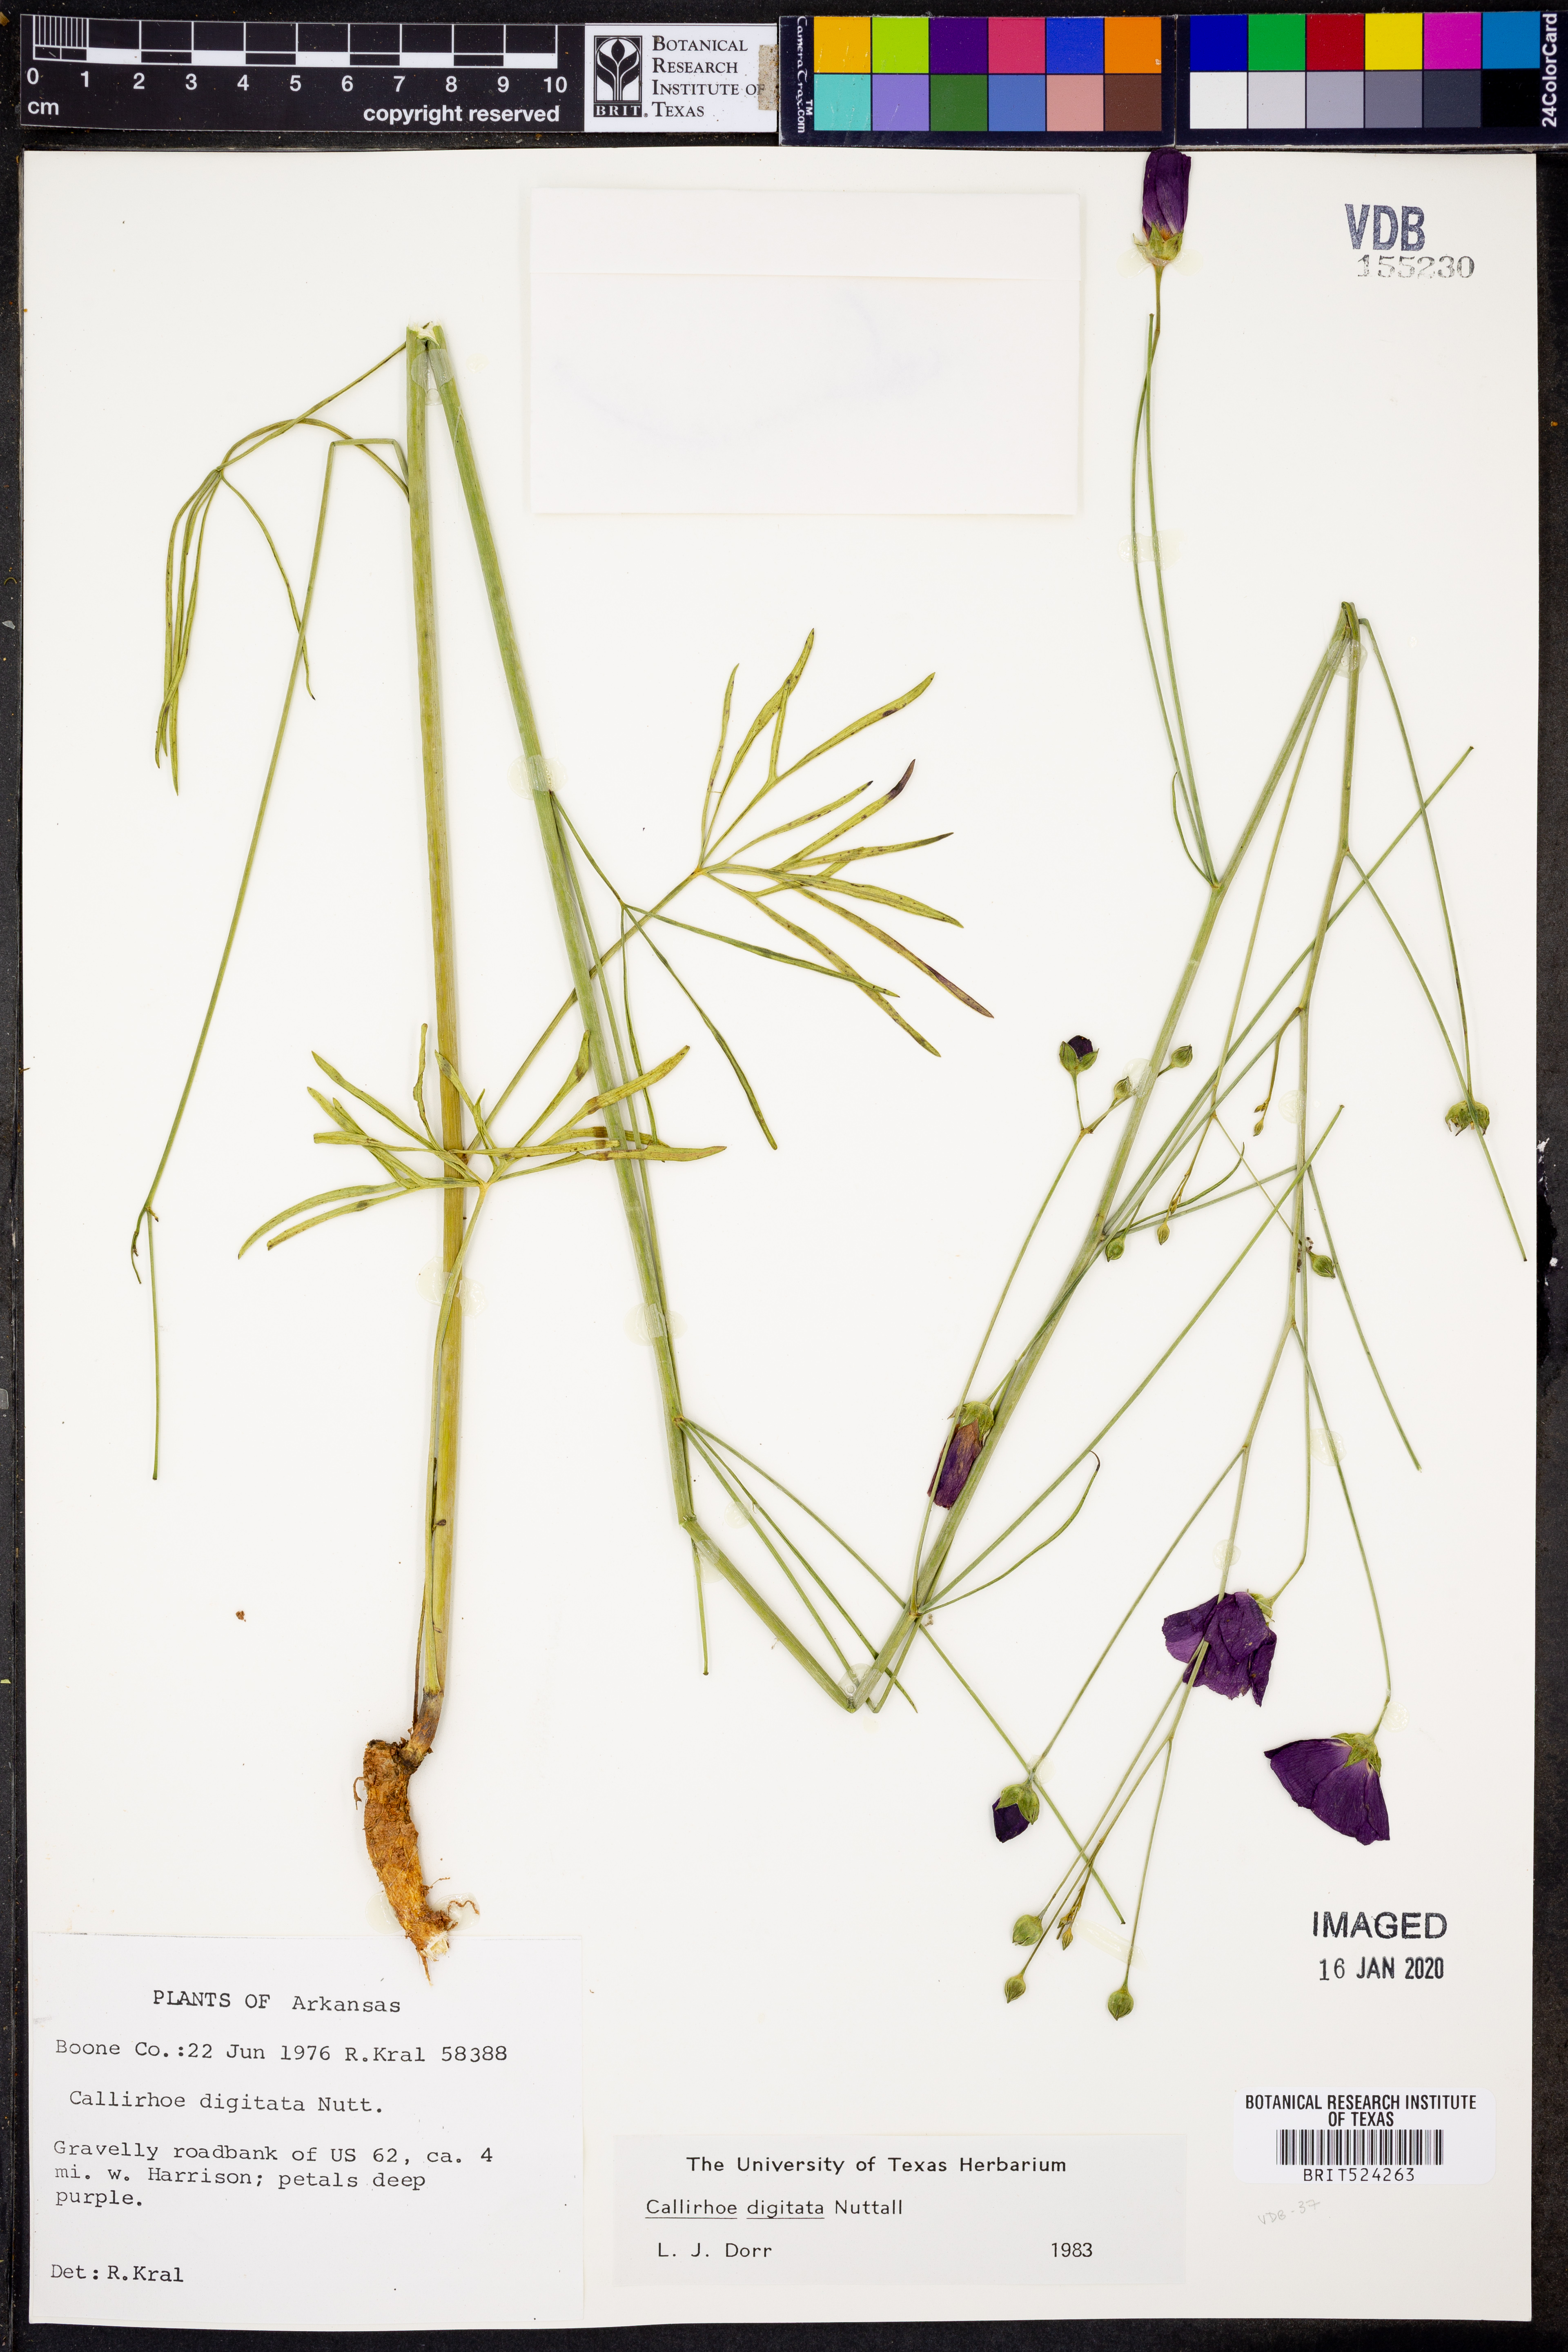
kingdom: Plantae
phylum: Tracheophyta
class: Magnoliopsida
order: Malvales
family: Malvaceae
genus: Callirhoe
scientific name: Callirhoe digitata
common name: Finger poppy-mallow
